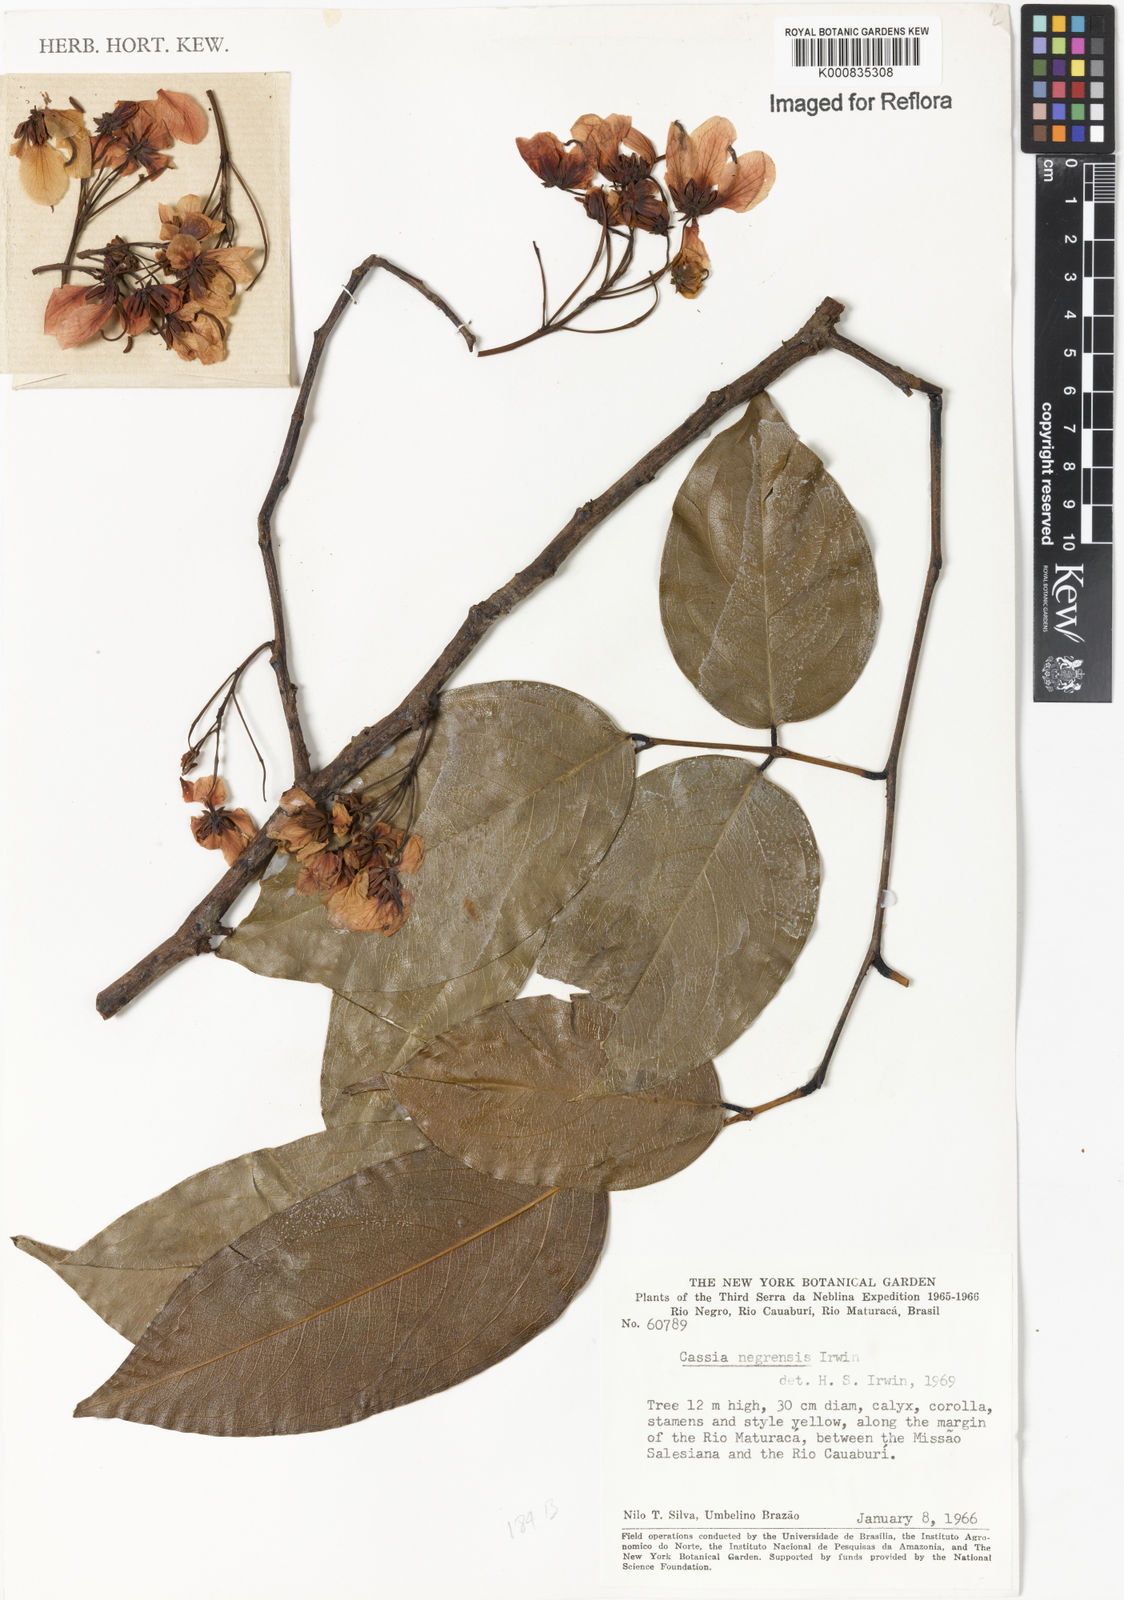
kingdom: Plantae
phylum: Tracheophyta
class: Magnoliopsida
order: Fabales
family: Fabaceae
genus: Chamaecrista
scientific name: Chamaecrista negrensis
